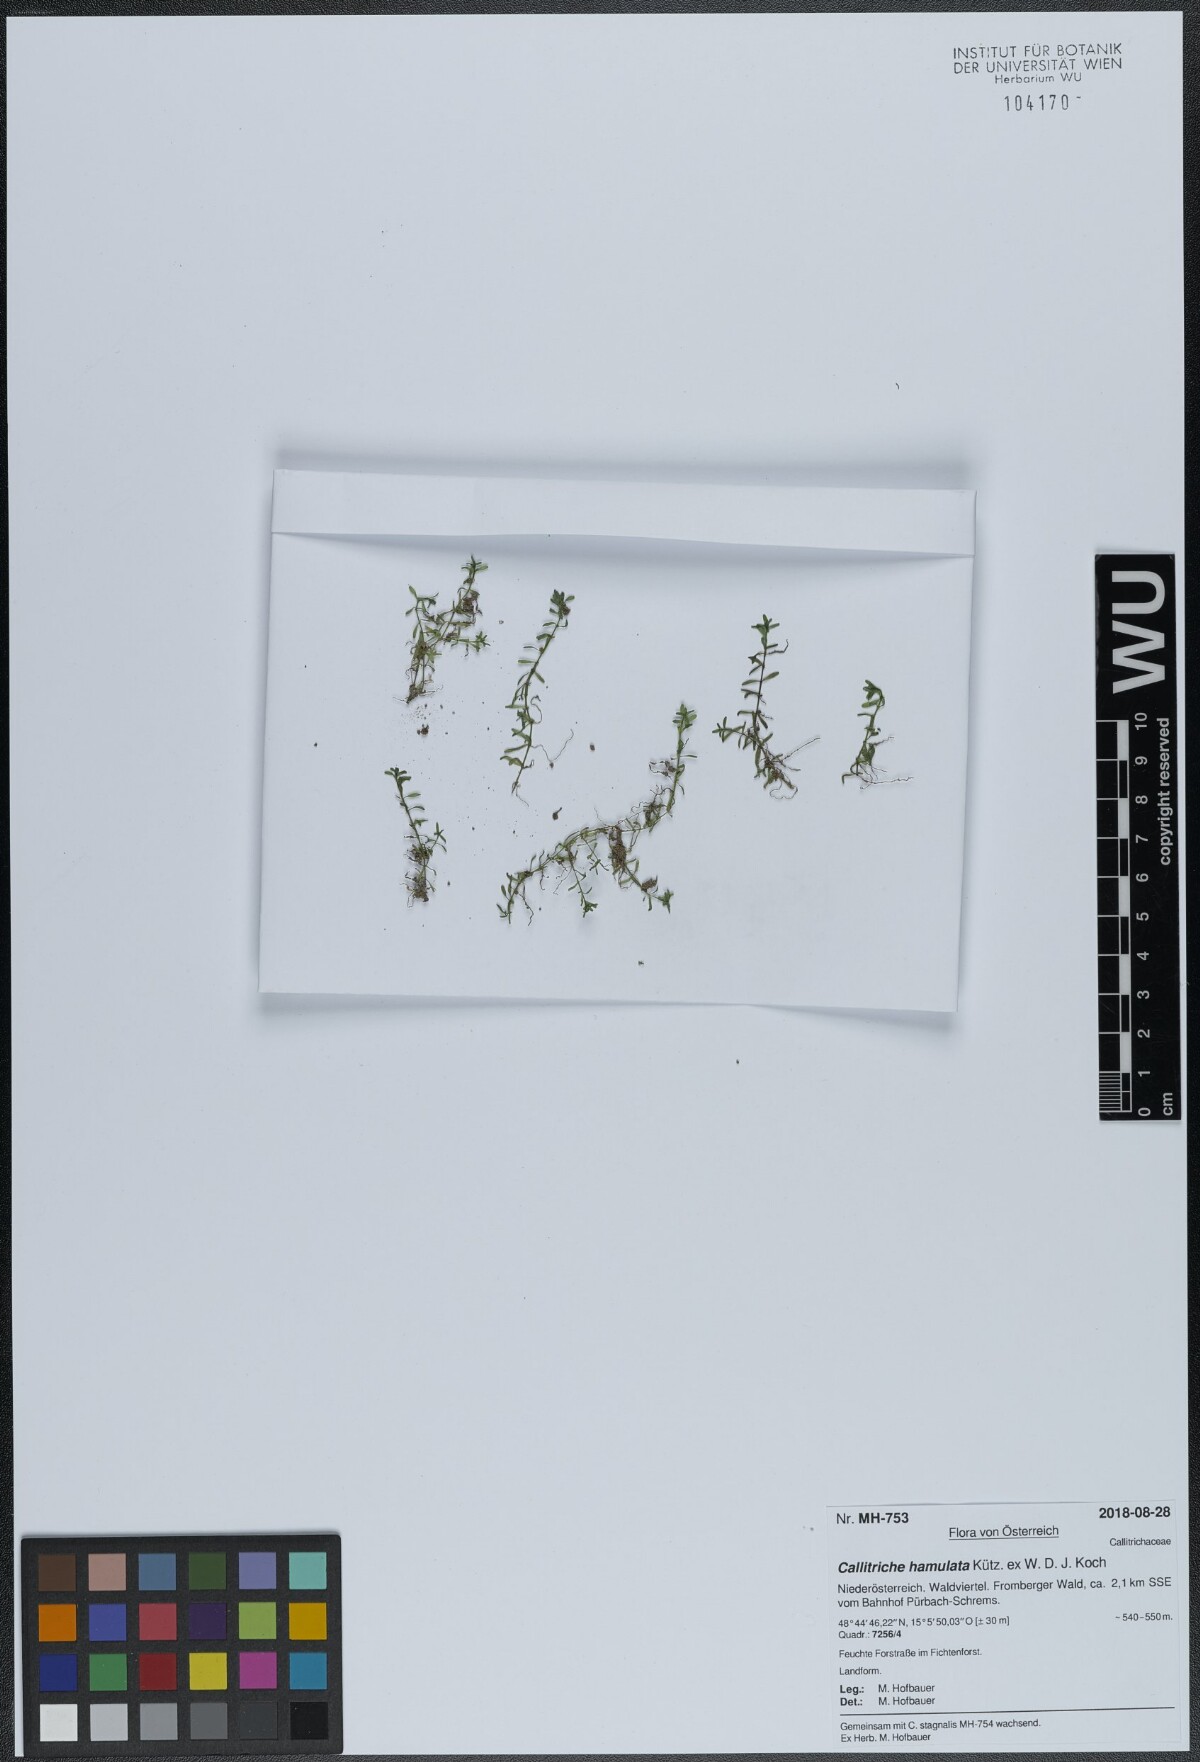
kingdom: Plantae
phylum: Tracheophyta
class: Magnoliopsida
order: Lamiales
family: Plantaginaceae
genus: Callitriche
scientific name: Callitriche hamulata
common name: Intermediate water-starwort
